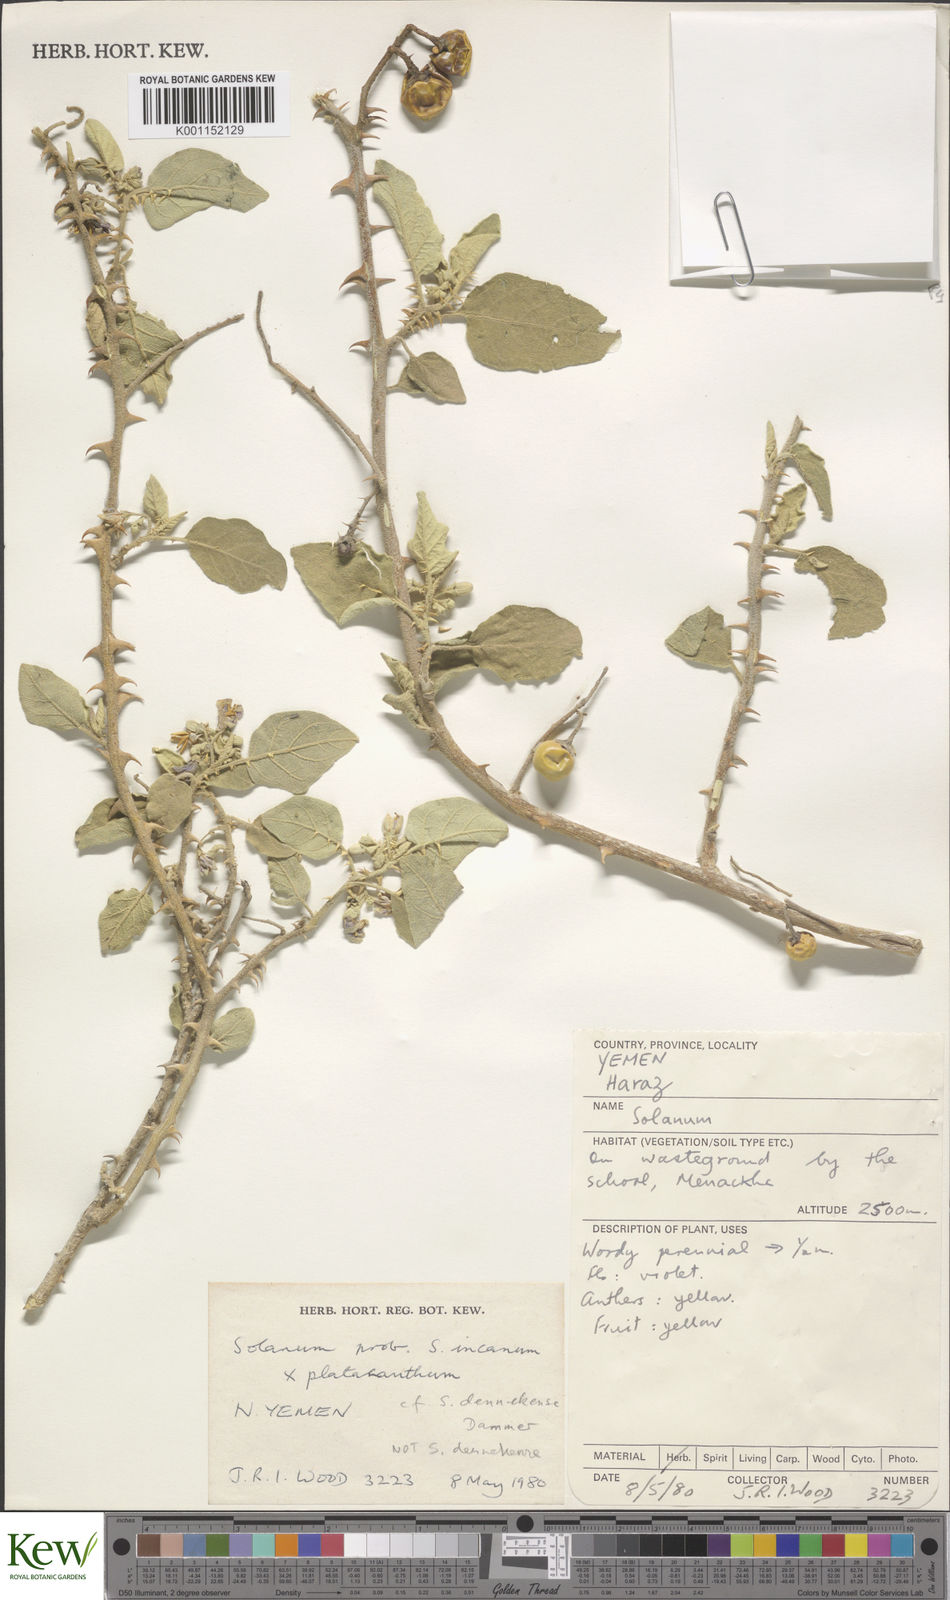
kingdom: Plantae
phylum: Tracheophyta
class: Magnoliopsida
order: Solanales
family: Solanaceae
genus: Solanum
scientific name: Solanum dennekense
